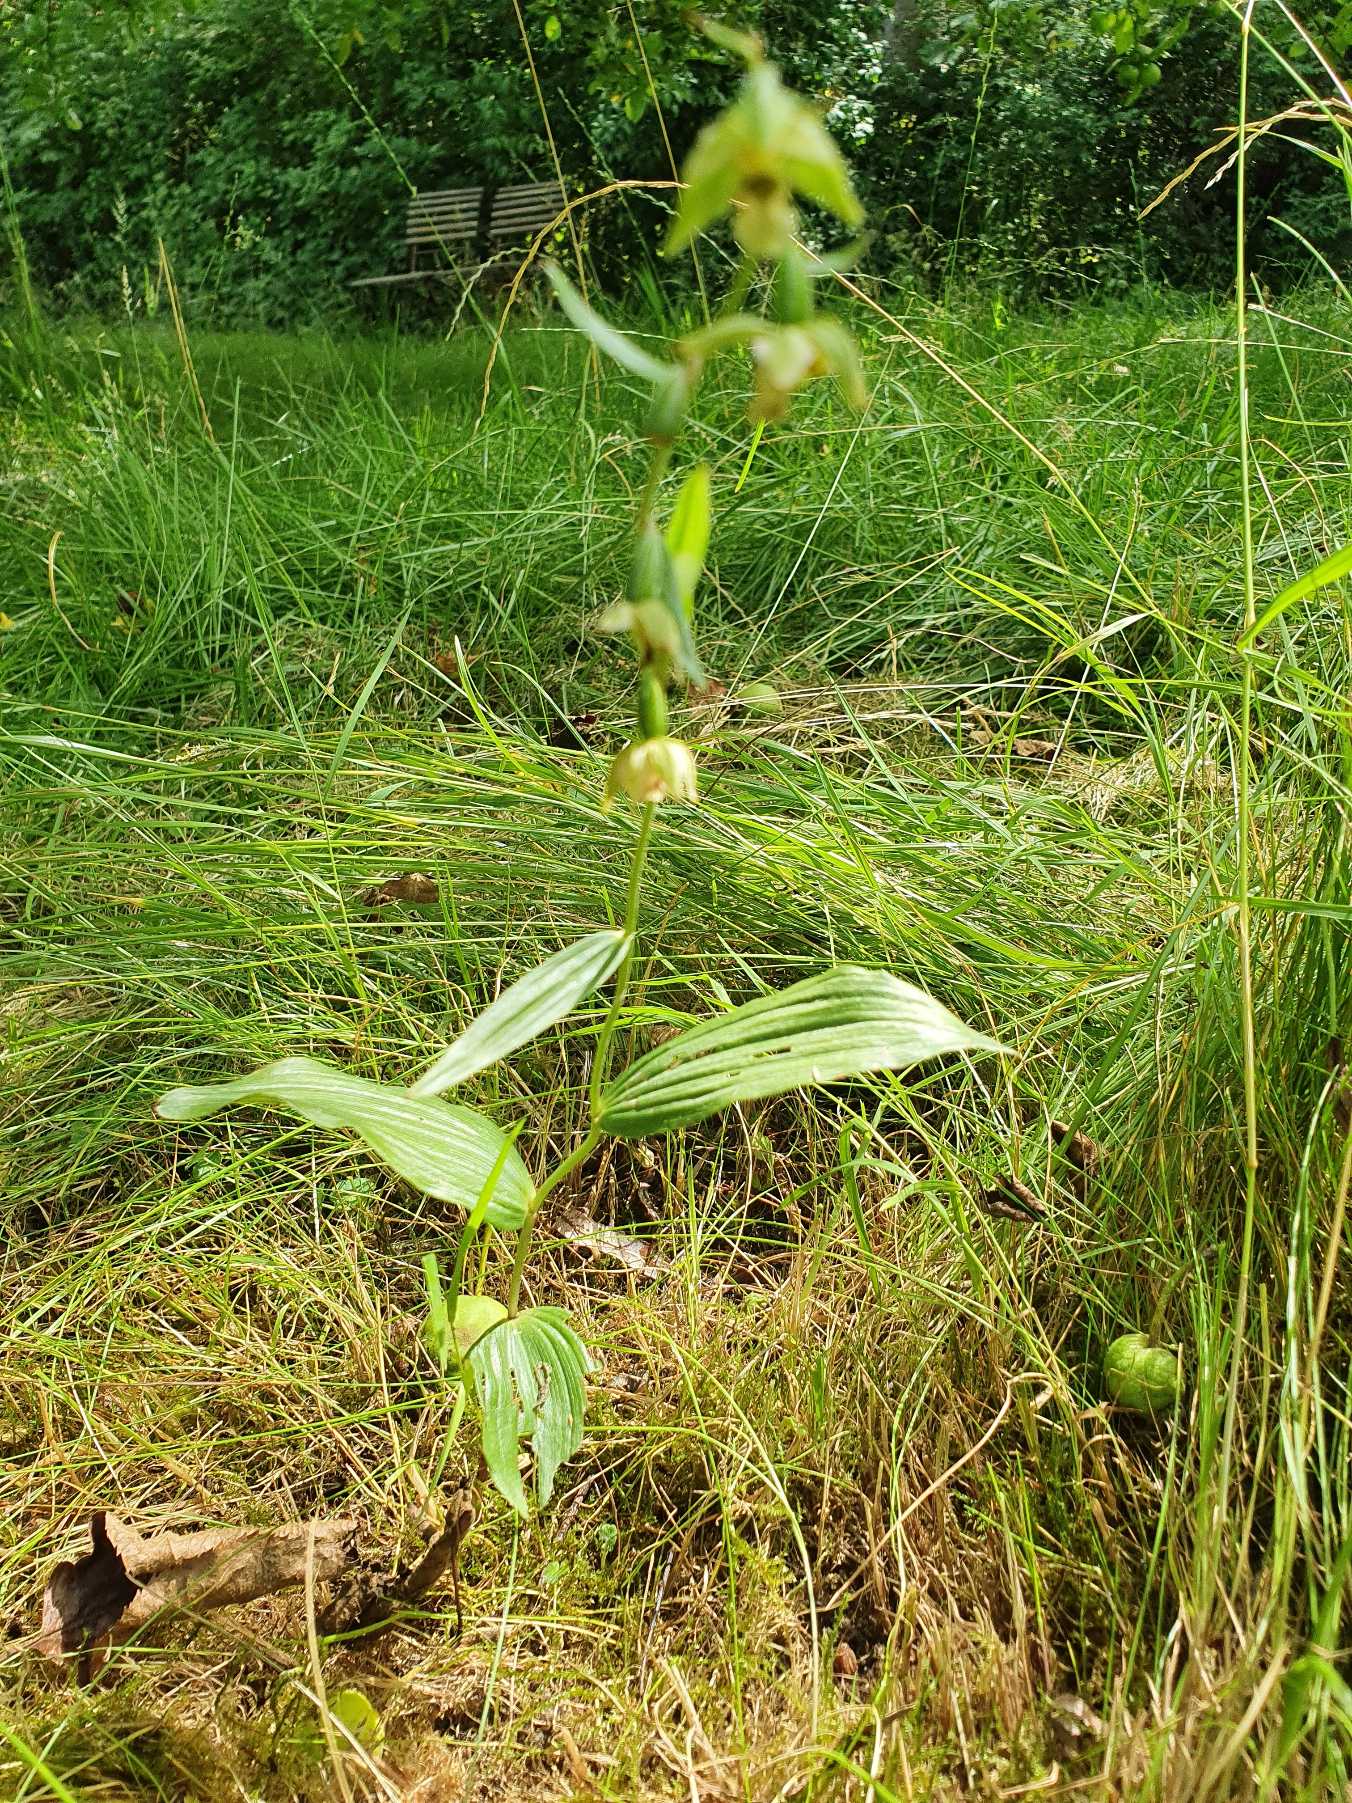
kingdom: Plantae
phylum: Tracheophyta
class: Liliopsida
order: Asparagales
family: Orchidaceae
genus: Epipactis
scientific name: Epipactis helleborine
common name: Skov-hullæbe
